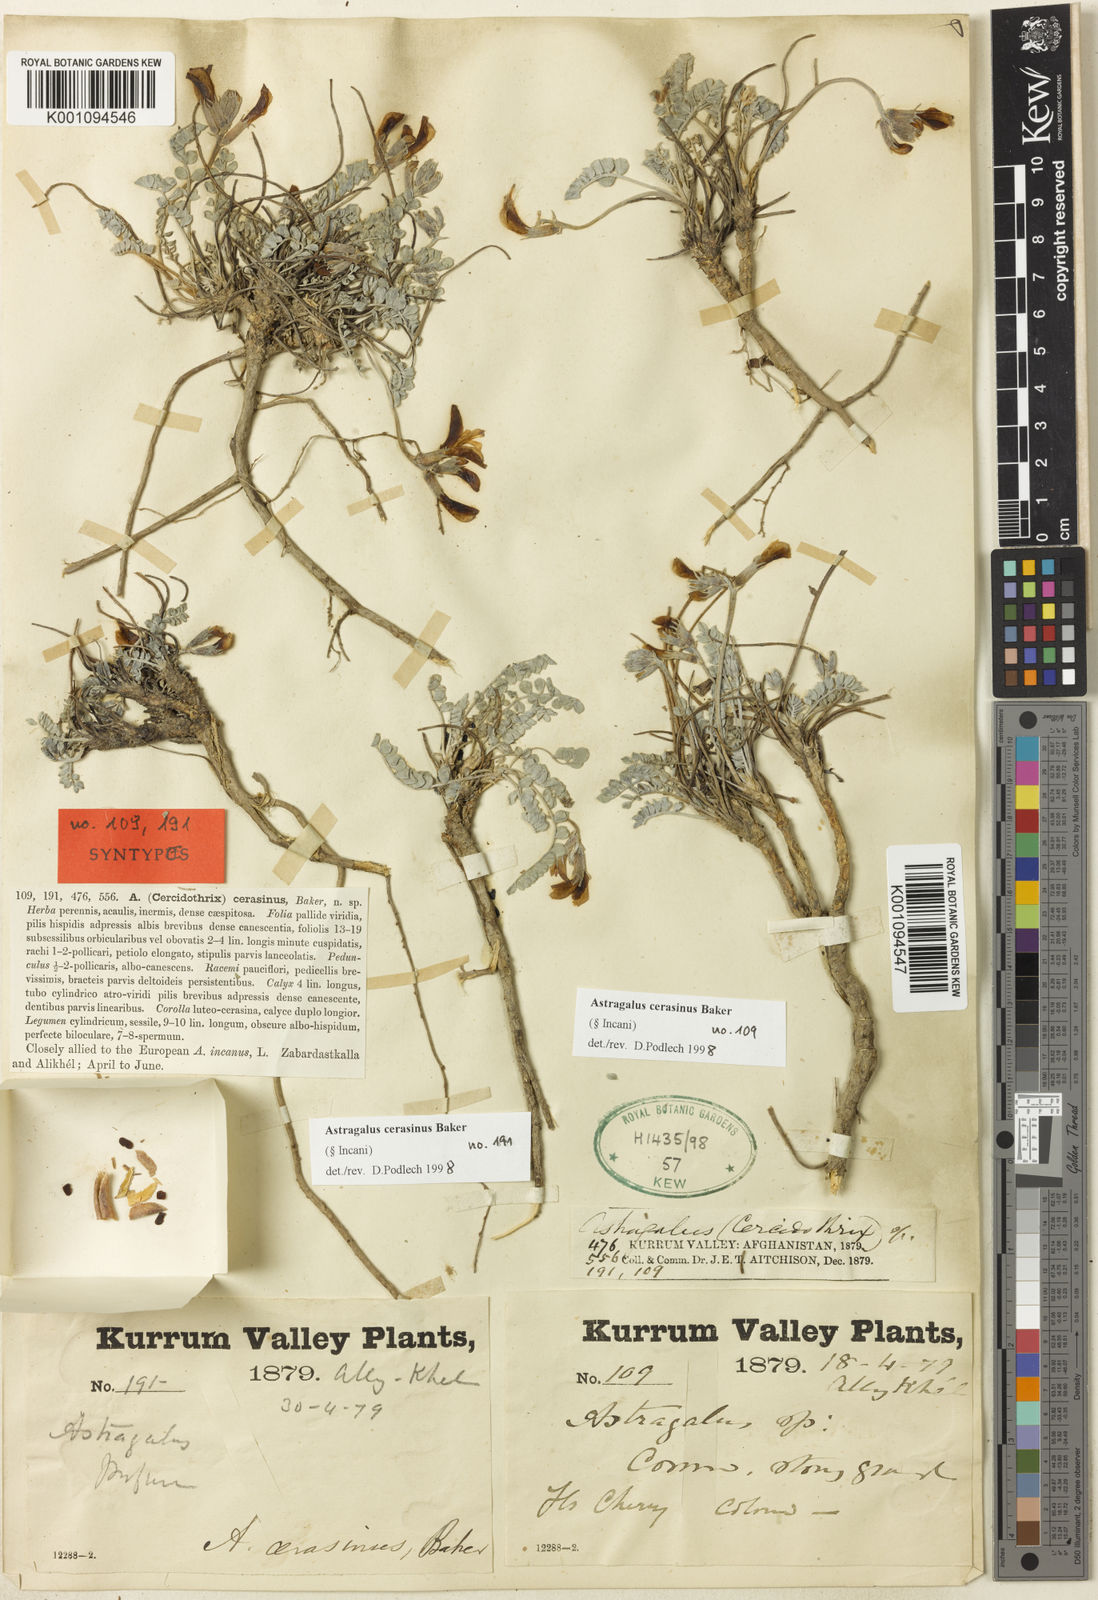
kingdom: Plantae
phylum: Tracheophyta
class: Magnoliopsida
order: Fabales
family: Fabaceae
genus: Astragalus
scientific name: Astragalus
